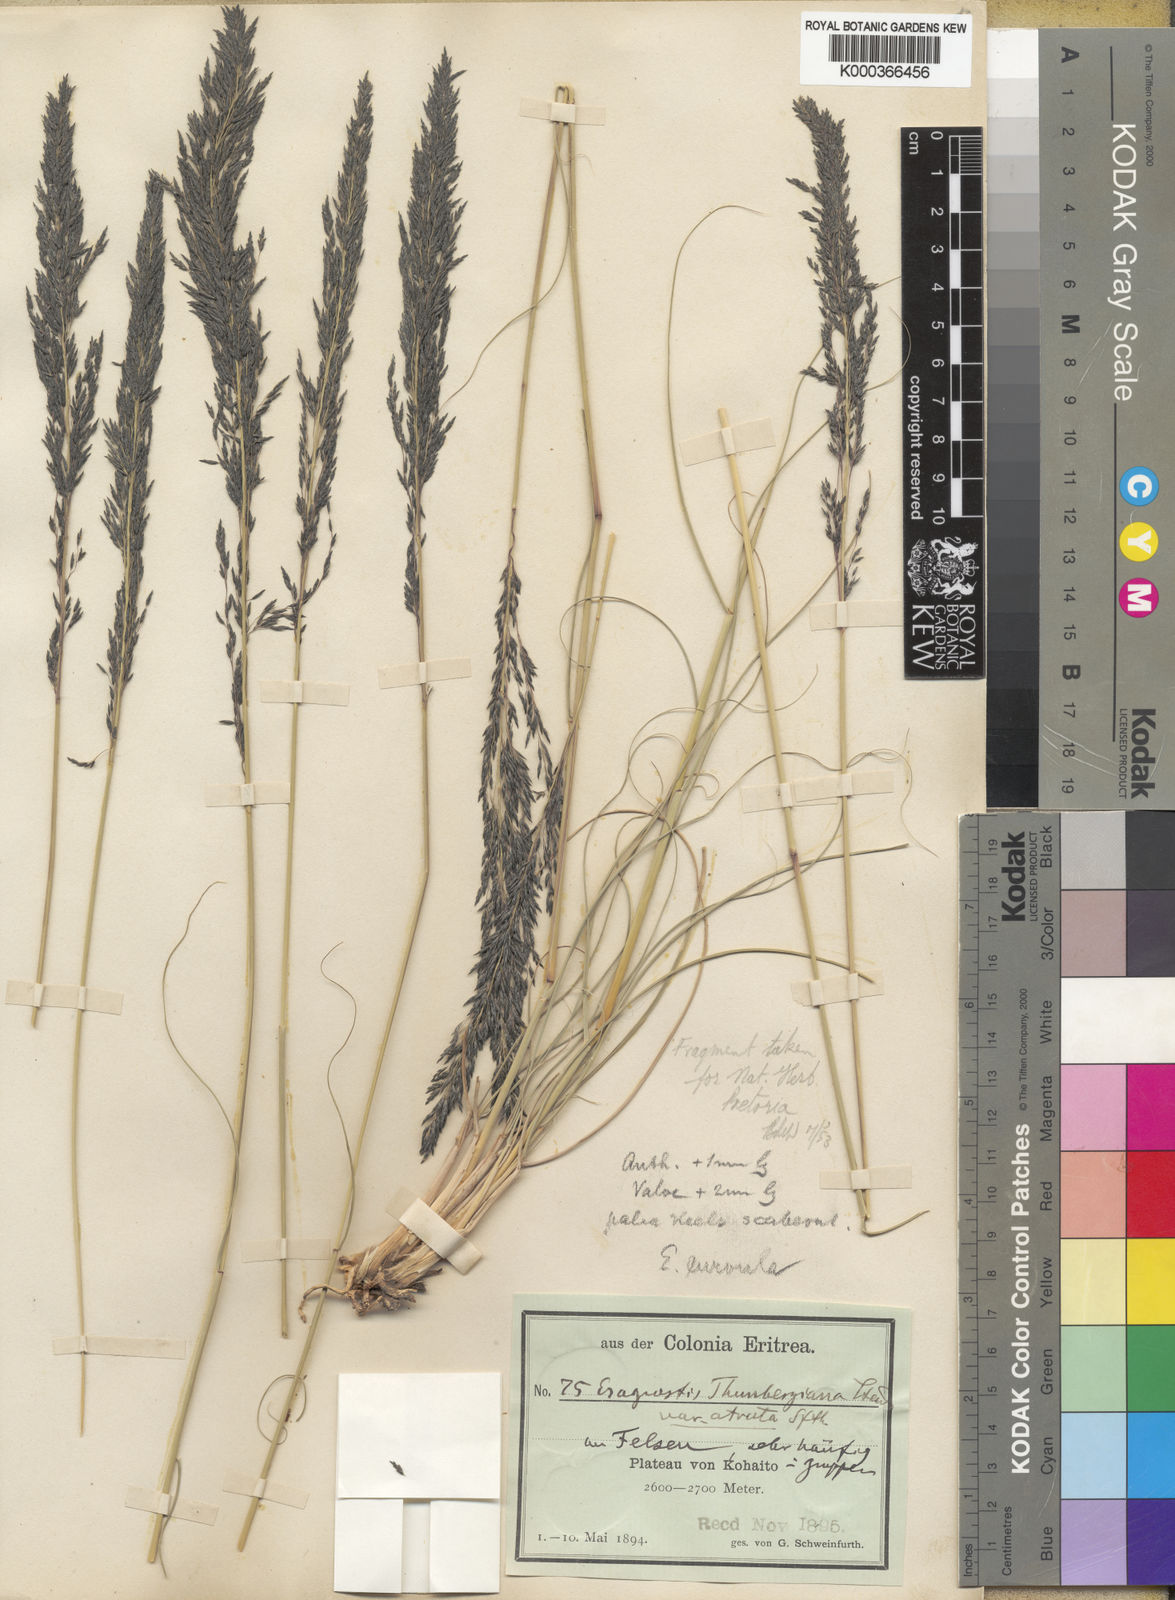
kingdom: Plantae
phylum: Tracheophyta
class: Liliopsida
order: Poales
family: Poaceae
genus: Eragrostis
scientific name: Eragrostis curvula
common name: African love-grass
